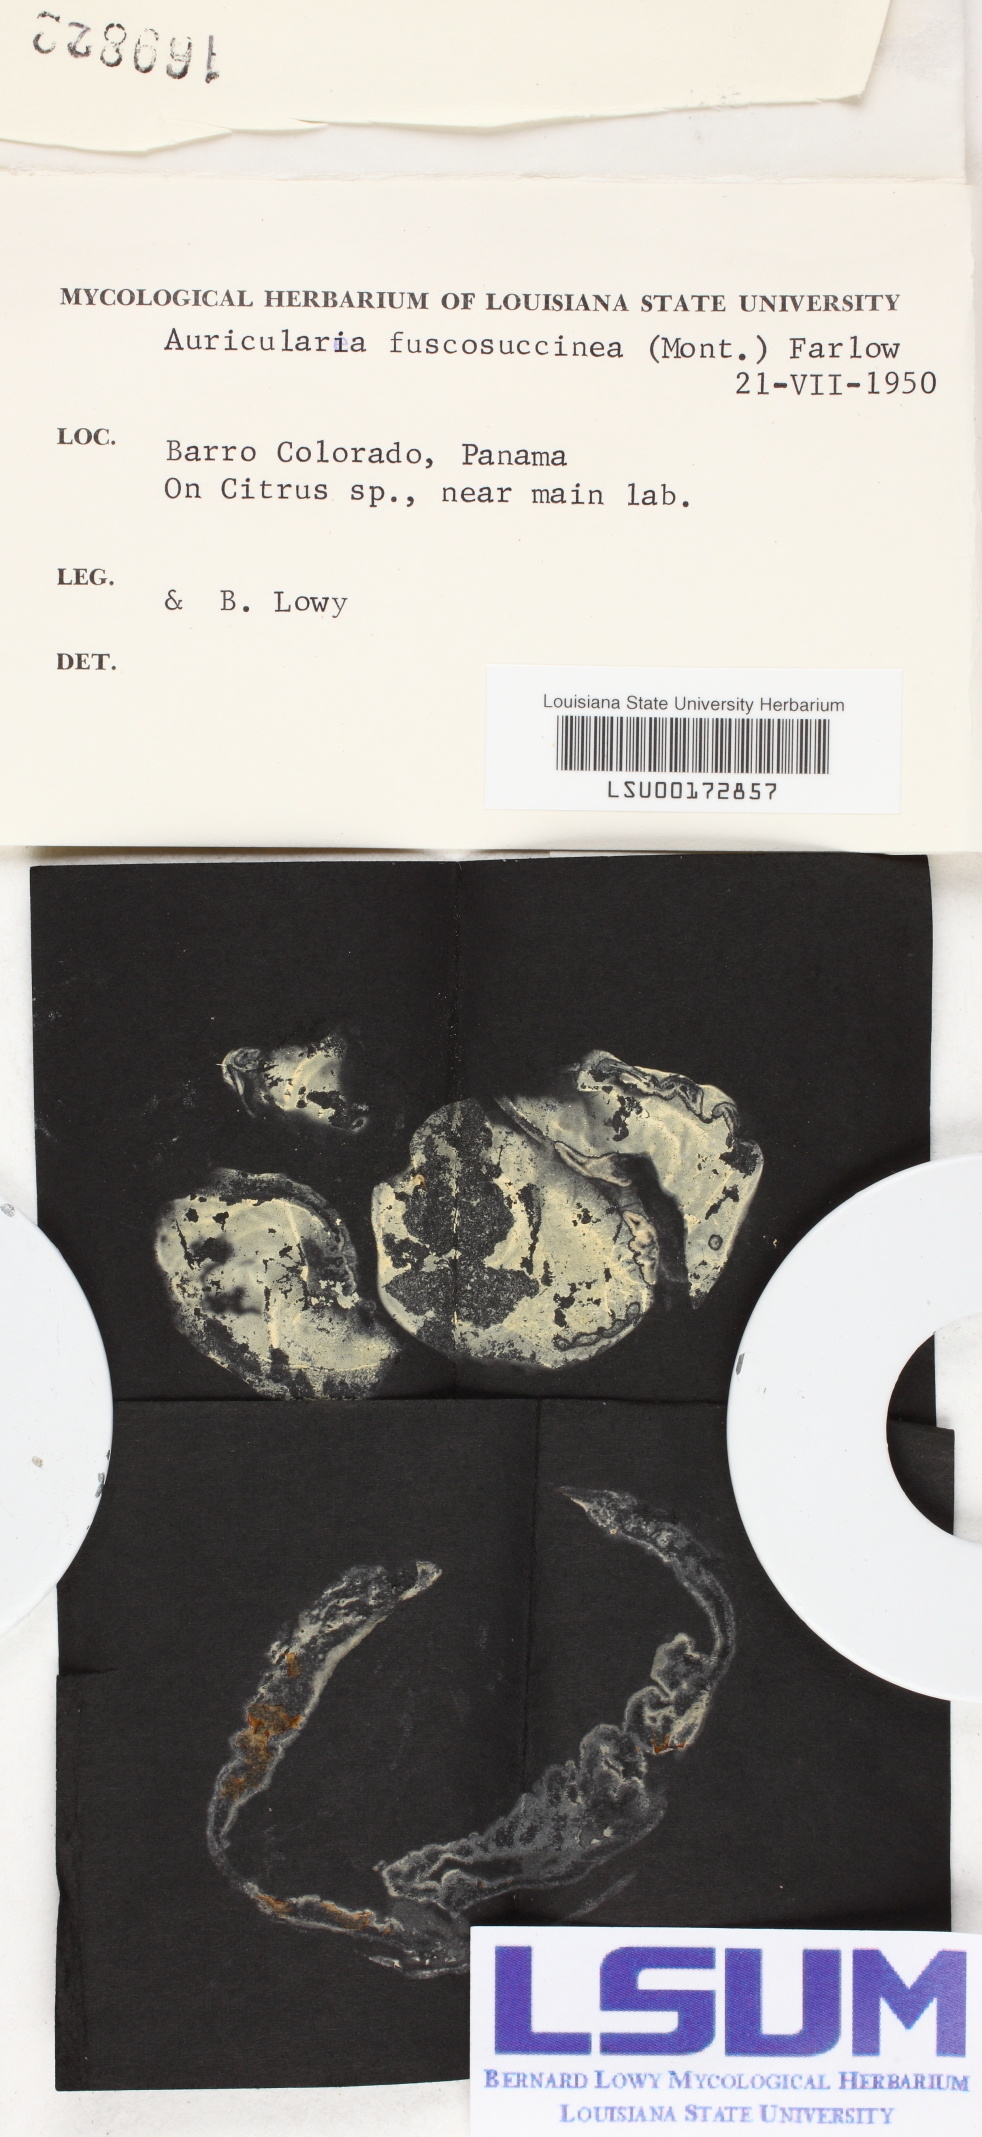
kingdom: Fungi
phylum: Basidiomycota
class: Agaricomycetes
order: Auriculariales
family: Auriculariaceae
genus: Auricularia
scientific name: Auricularia fuscosuccinea
